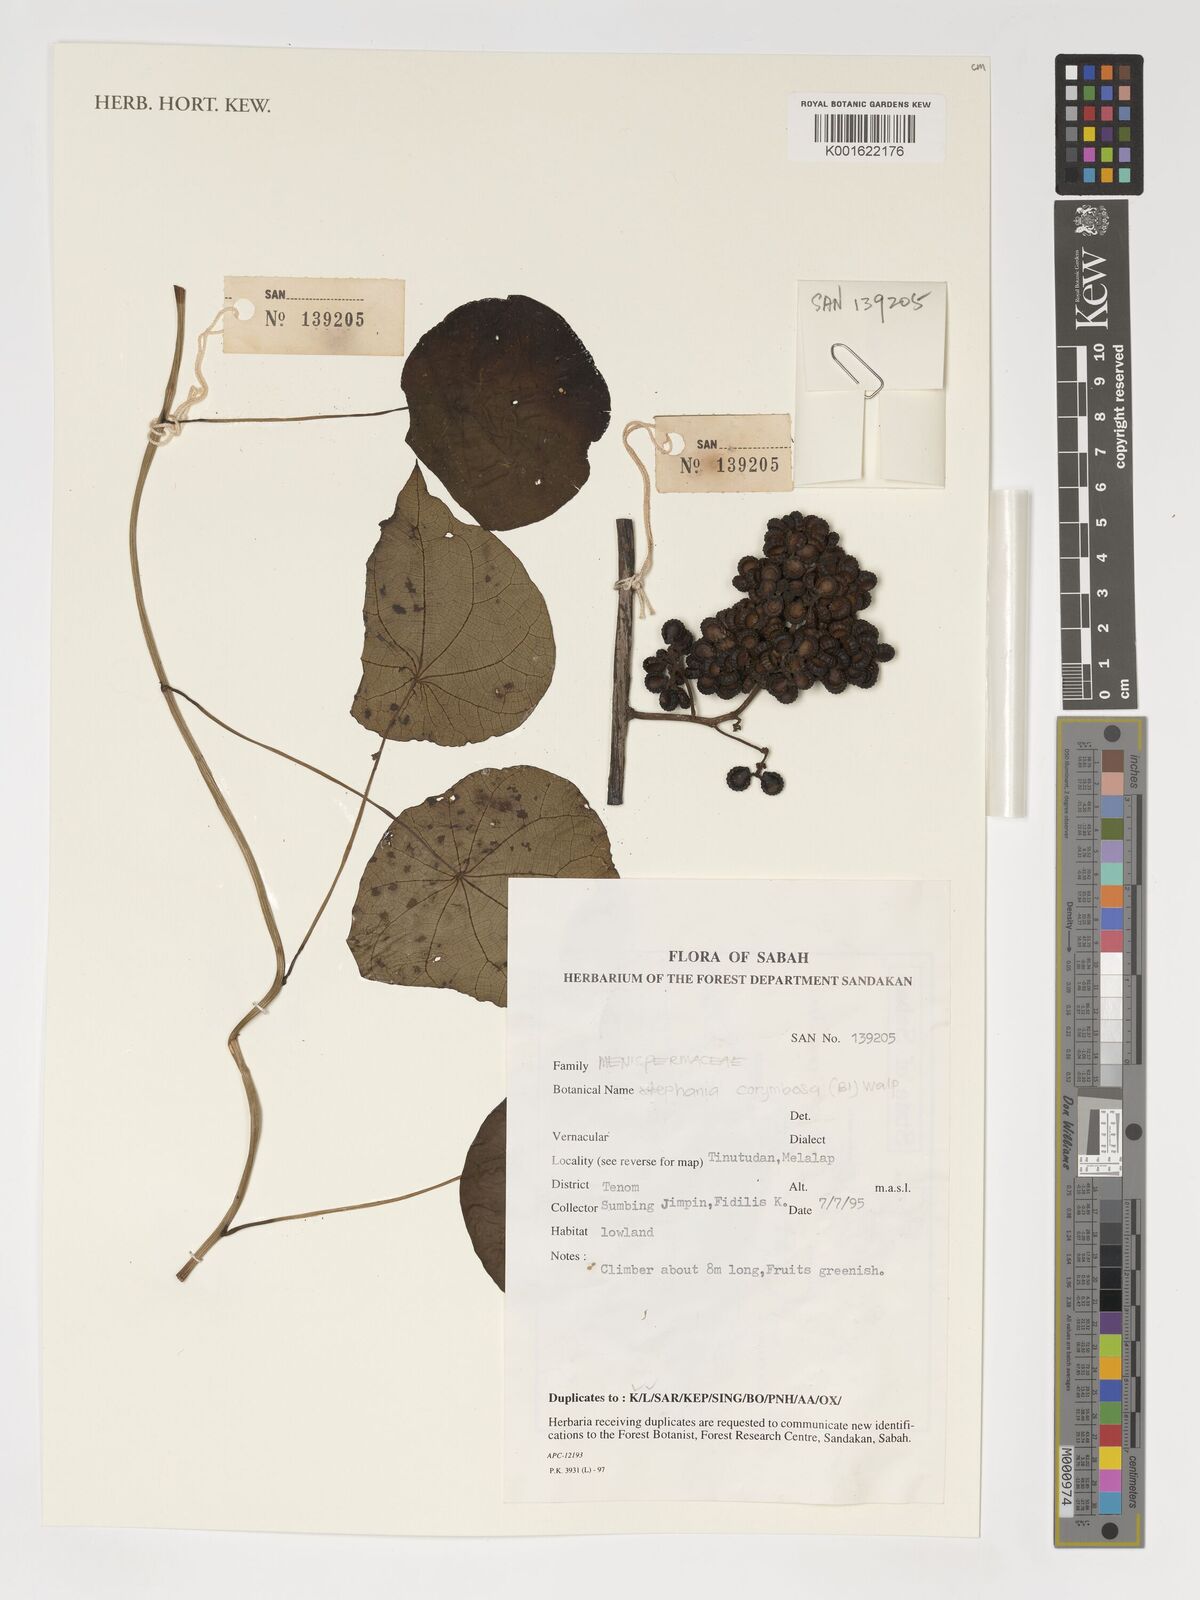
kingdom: Plantae
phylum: Tracheophyta
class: Magnoliopsida
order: Ranunculales
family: Menispermaceae
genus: Stephania
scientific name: Stephania corymbosa
